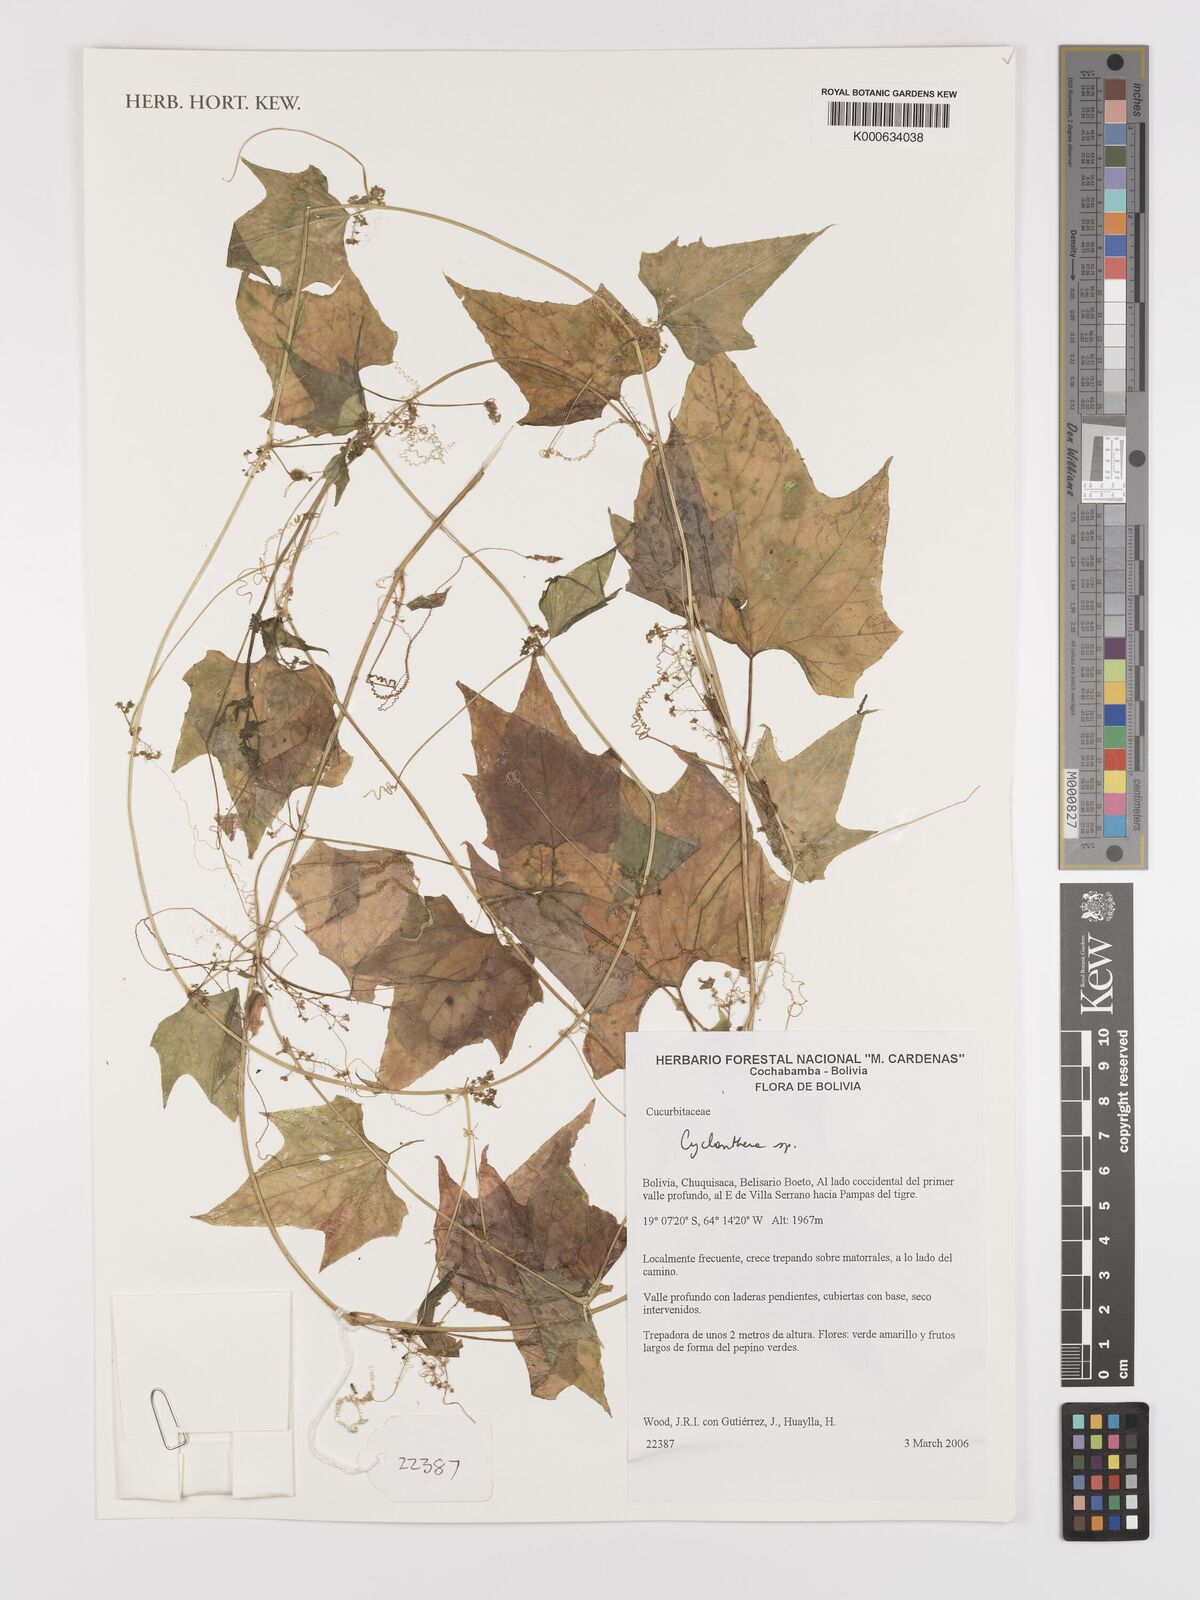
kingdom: Plantae
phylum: Tracheophyta
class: Magnoliopsida
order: Cucurbitales
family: Cucurbitaceae
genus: Cyclanthera
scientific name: Cyclanthera
